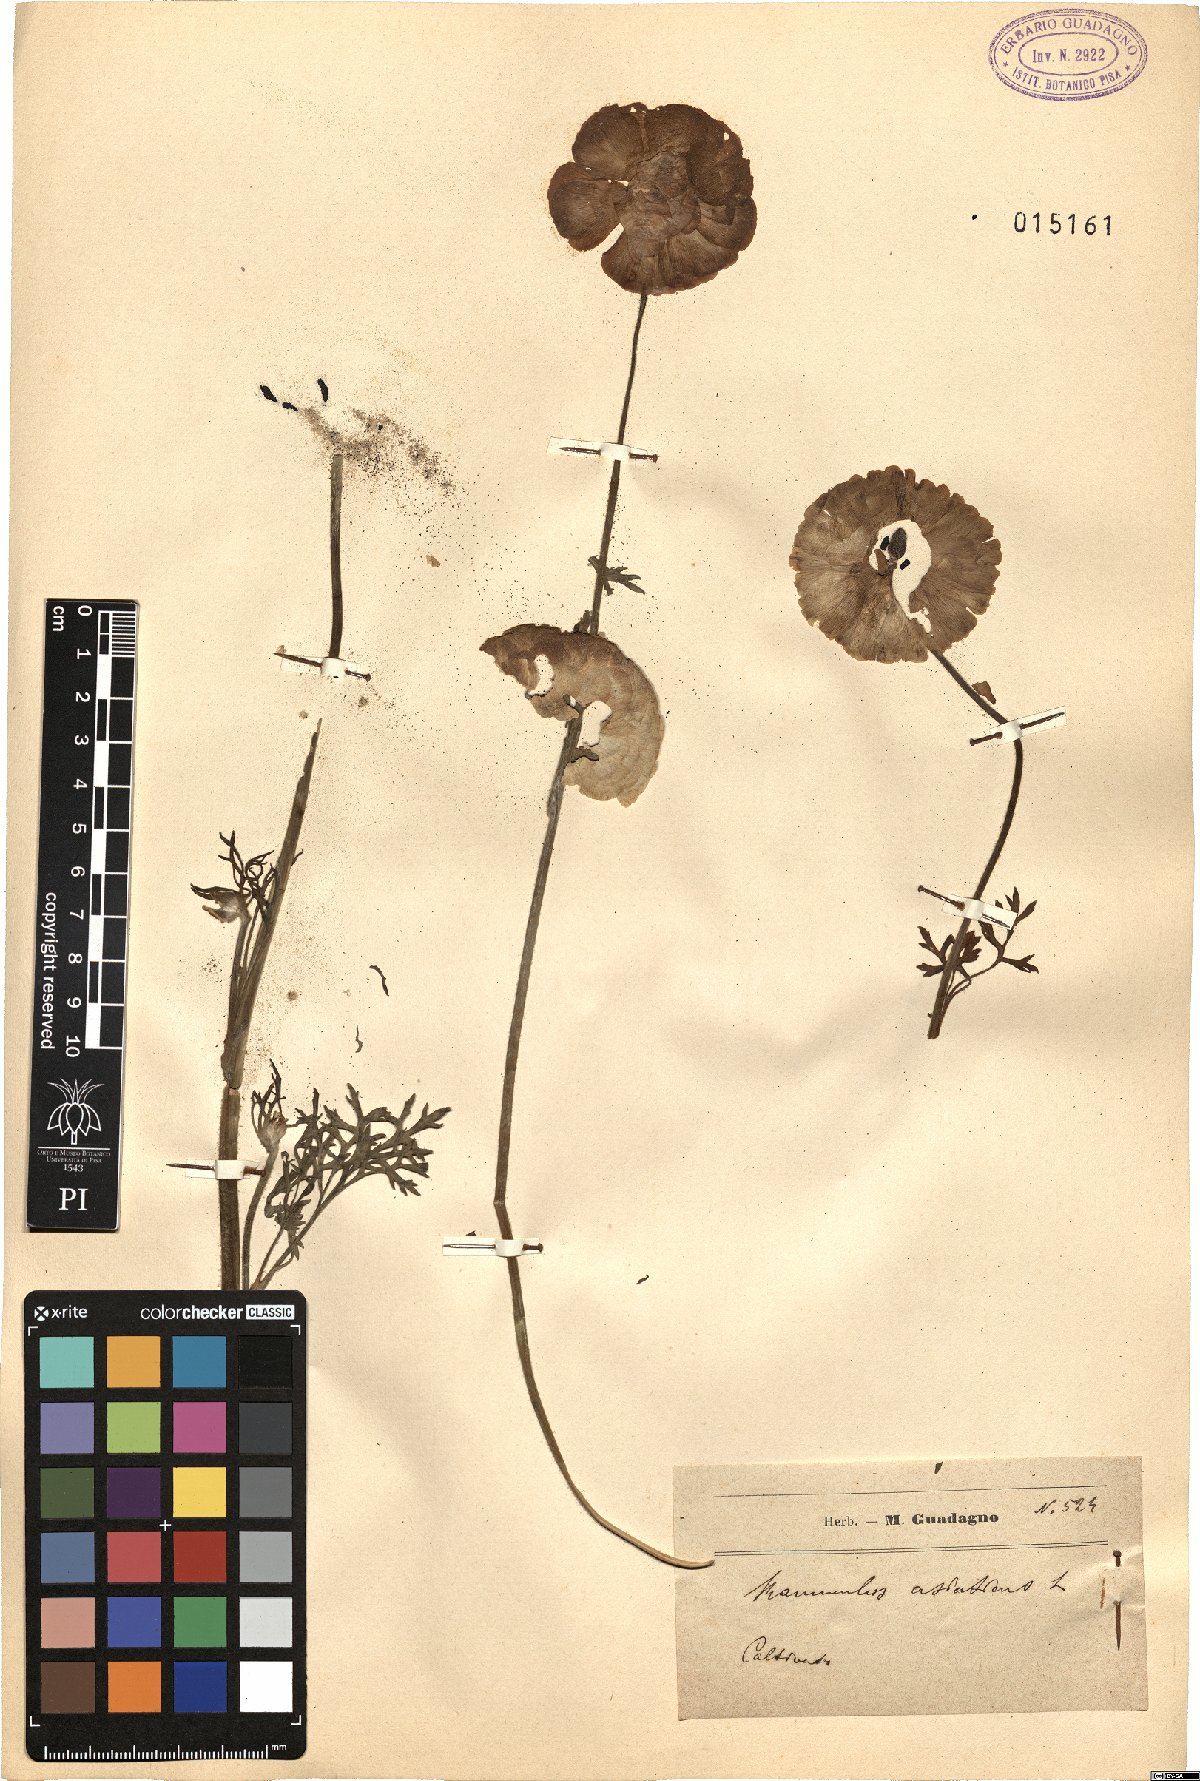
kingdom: Plantae
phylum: Tracheophyta
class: Magnoliopsida
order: Ranunculales
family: Ranunculaceae
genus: Ranunculus
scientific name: Ranunculus asiaticus
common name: Persian buttercup
